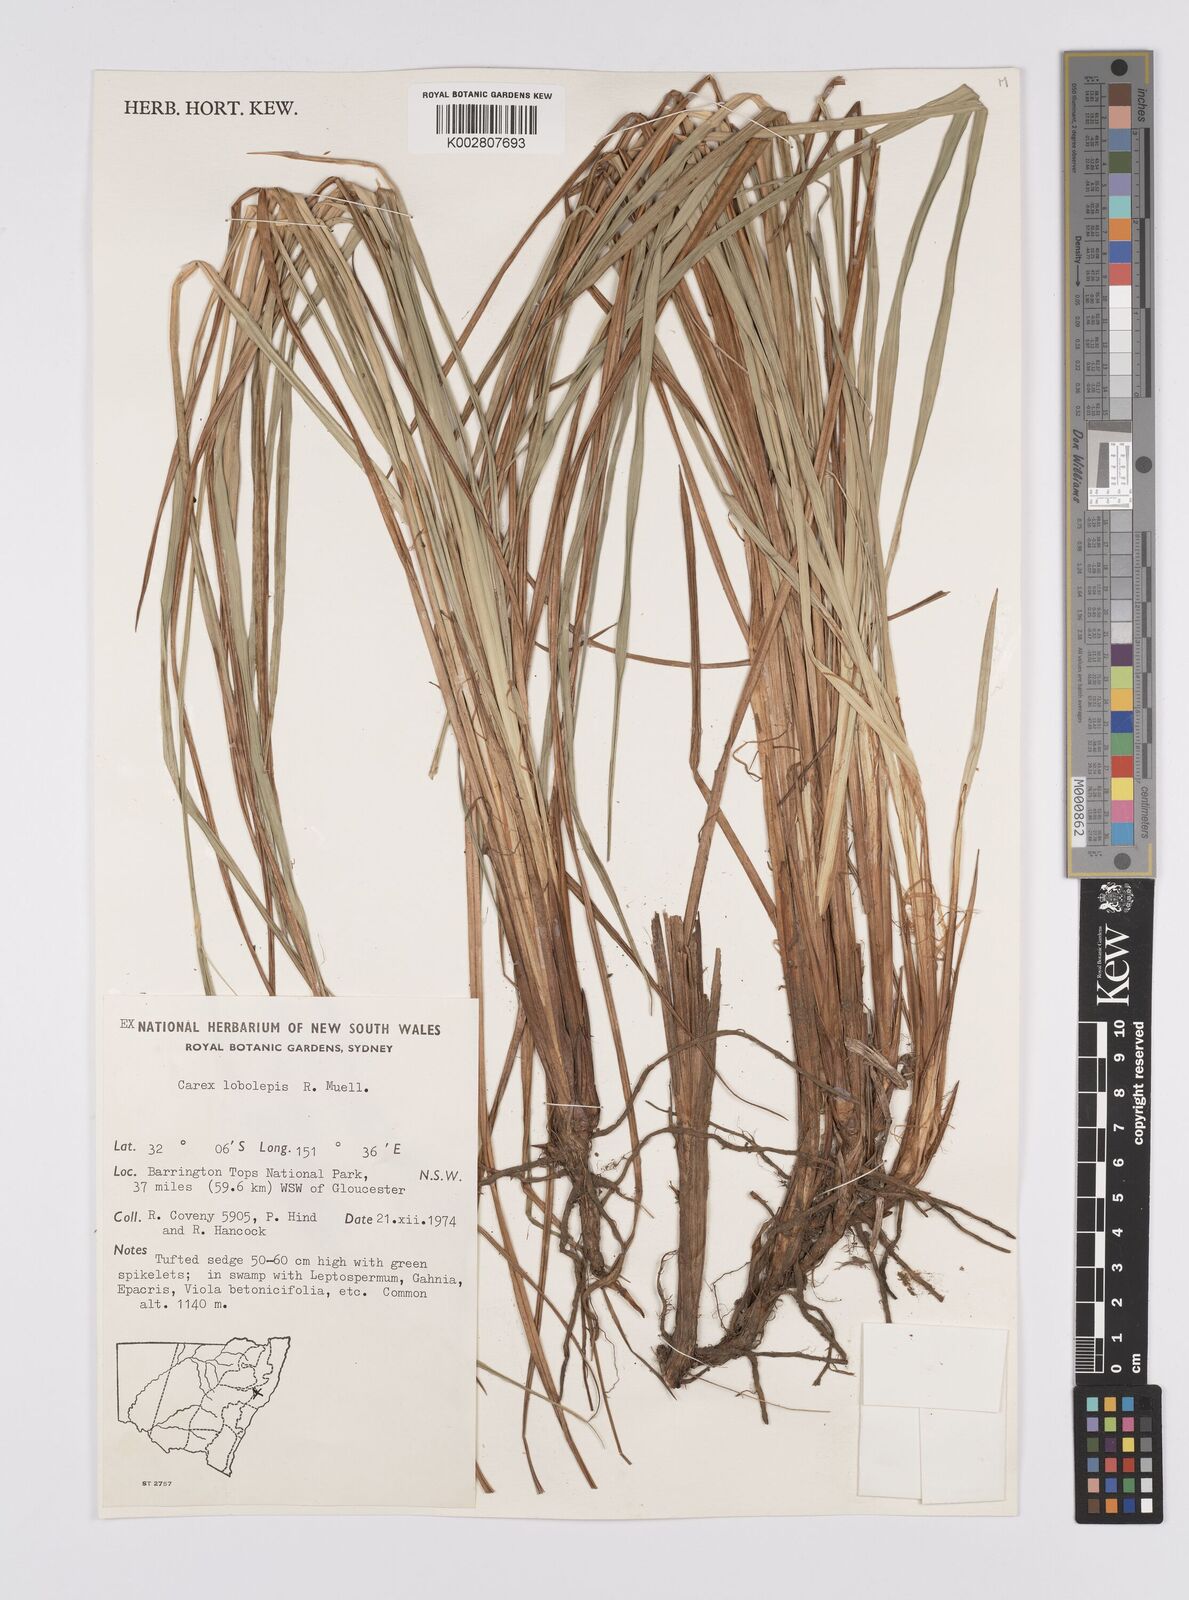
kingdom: Plantae
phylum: Tracheophyta
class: Liliopsida
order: Poales
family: Cyperaceae
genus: Carex
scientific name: Carex lobolepis
